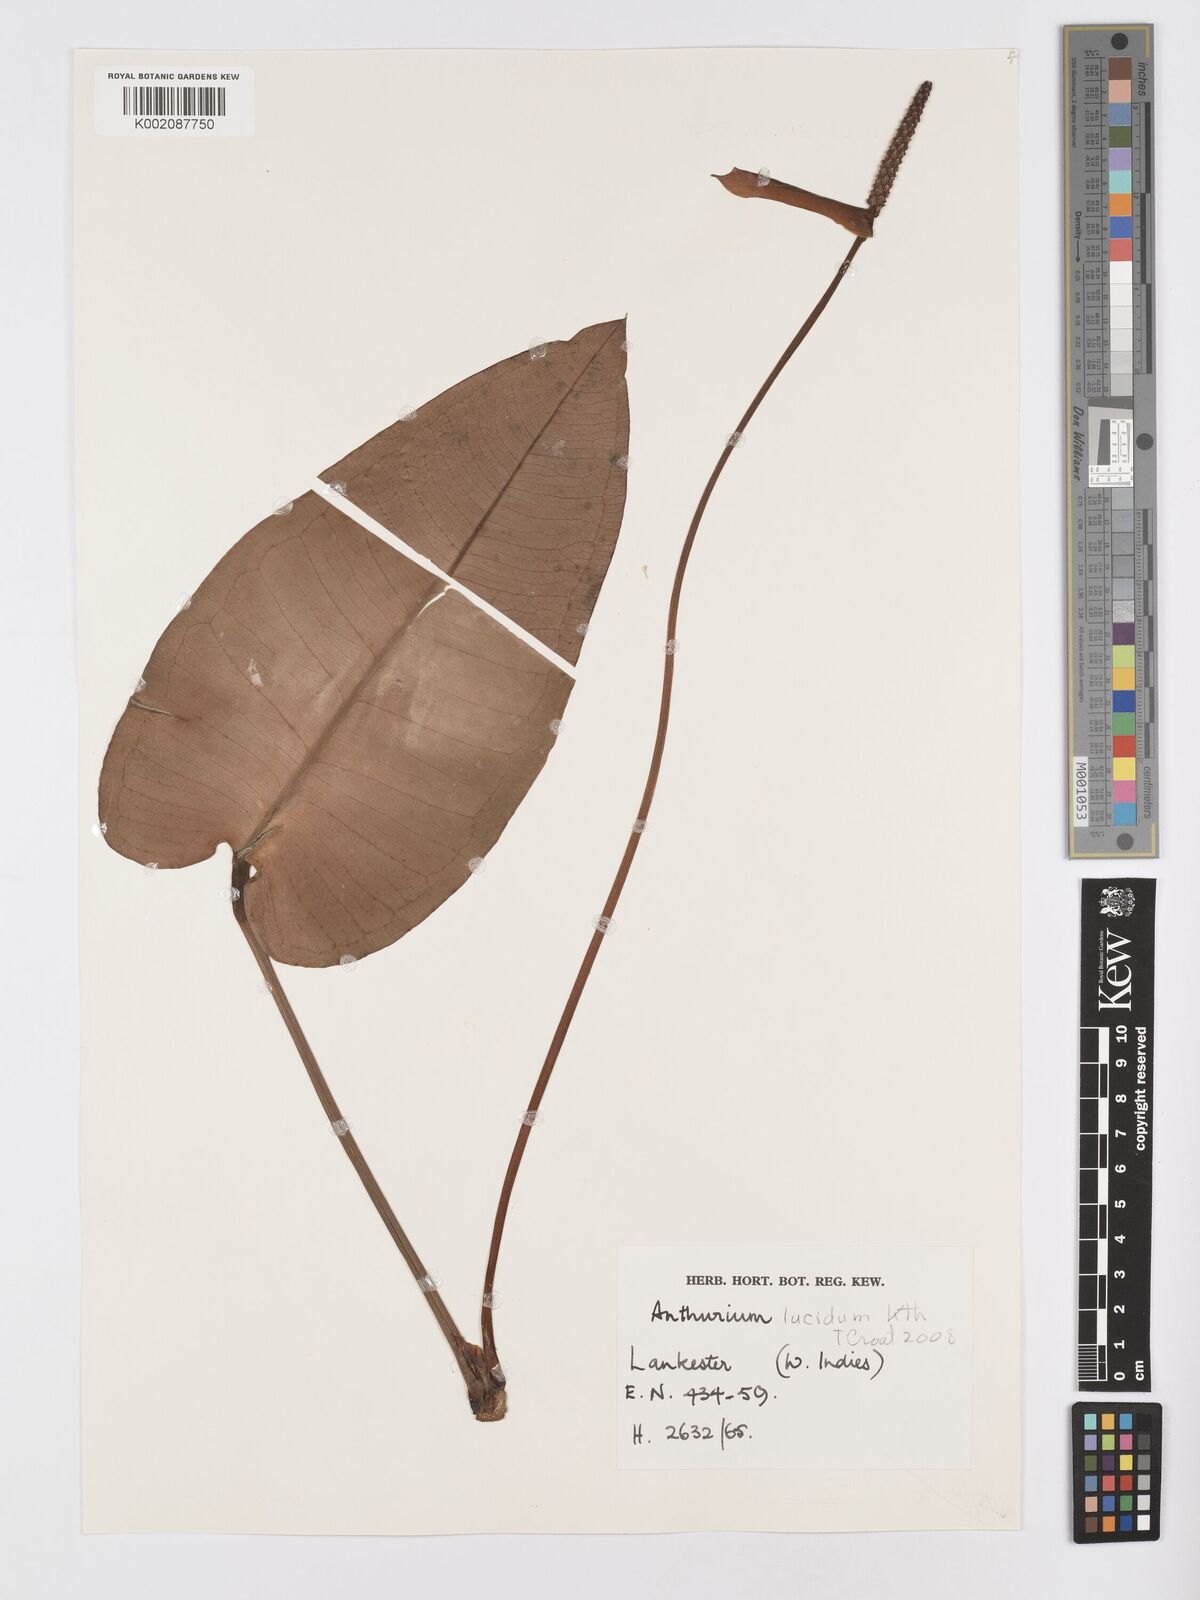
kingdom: Plantae
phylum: Tracheophyta
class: Liliopsida
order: Alismatales
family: Araceae
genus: Anthurium
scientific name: Anthurium lucidum
